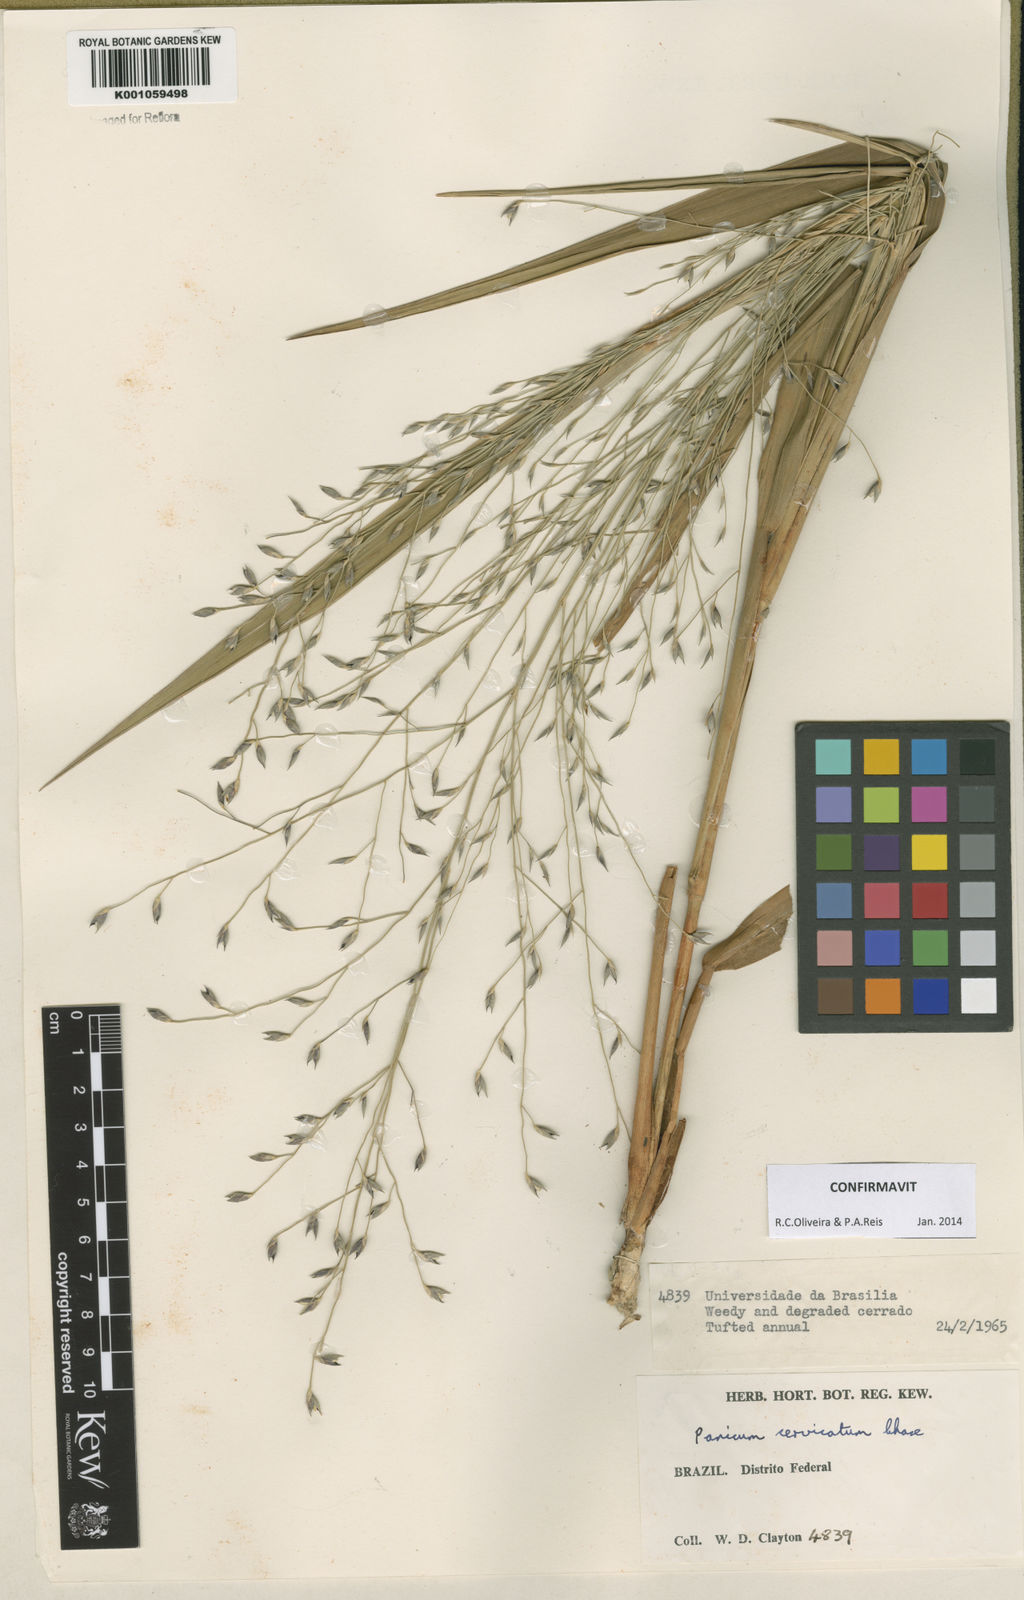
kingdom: Plantae
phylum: Tracheophyta
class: Liliopsida
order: Poales
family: Poaceae
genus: Panicum
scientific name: Panicum cervicatum
